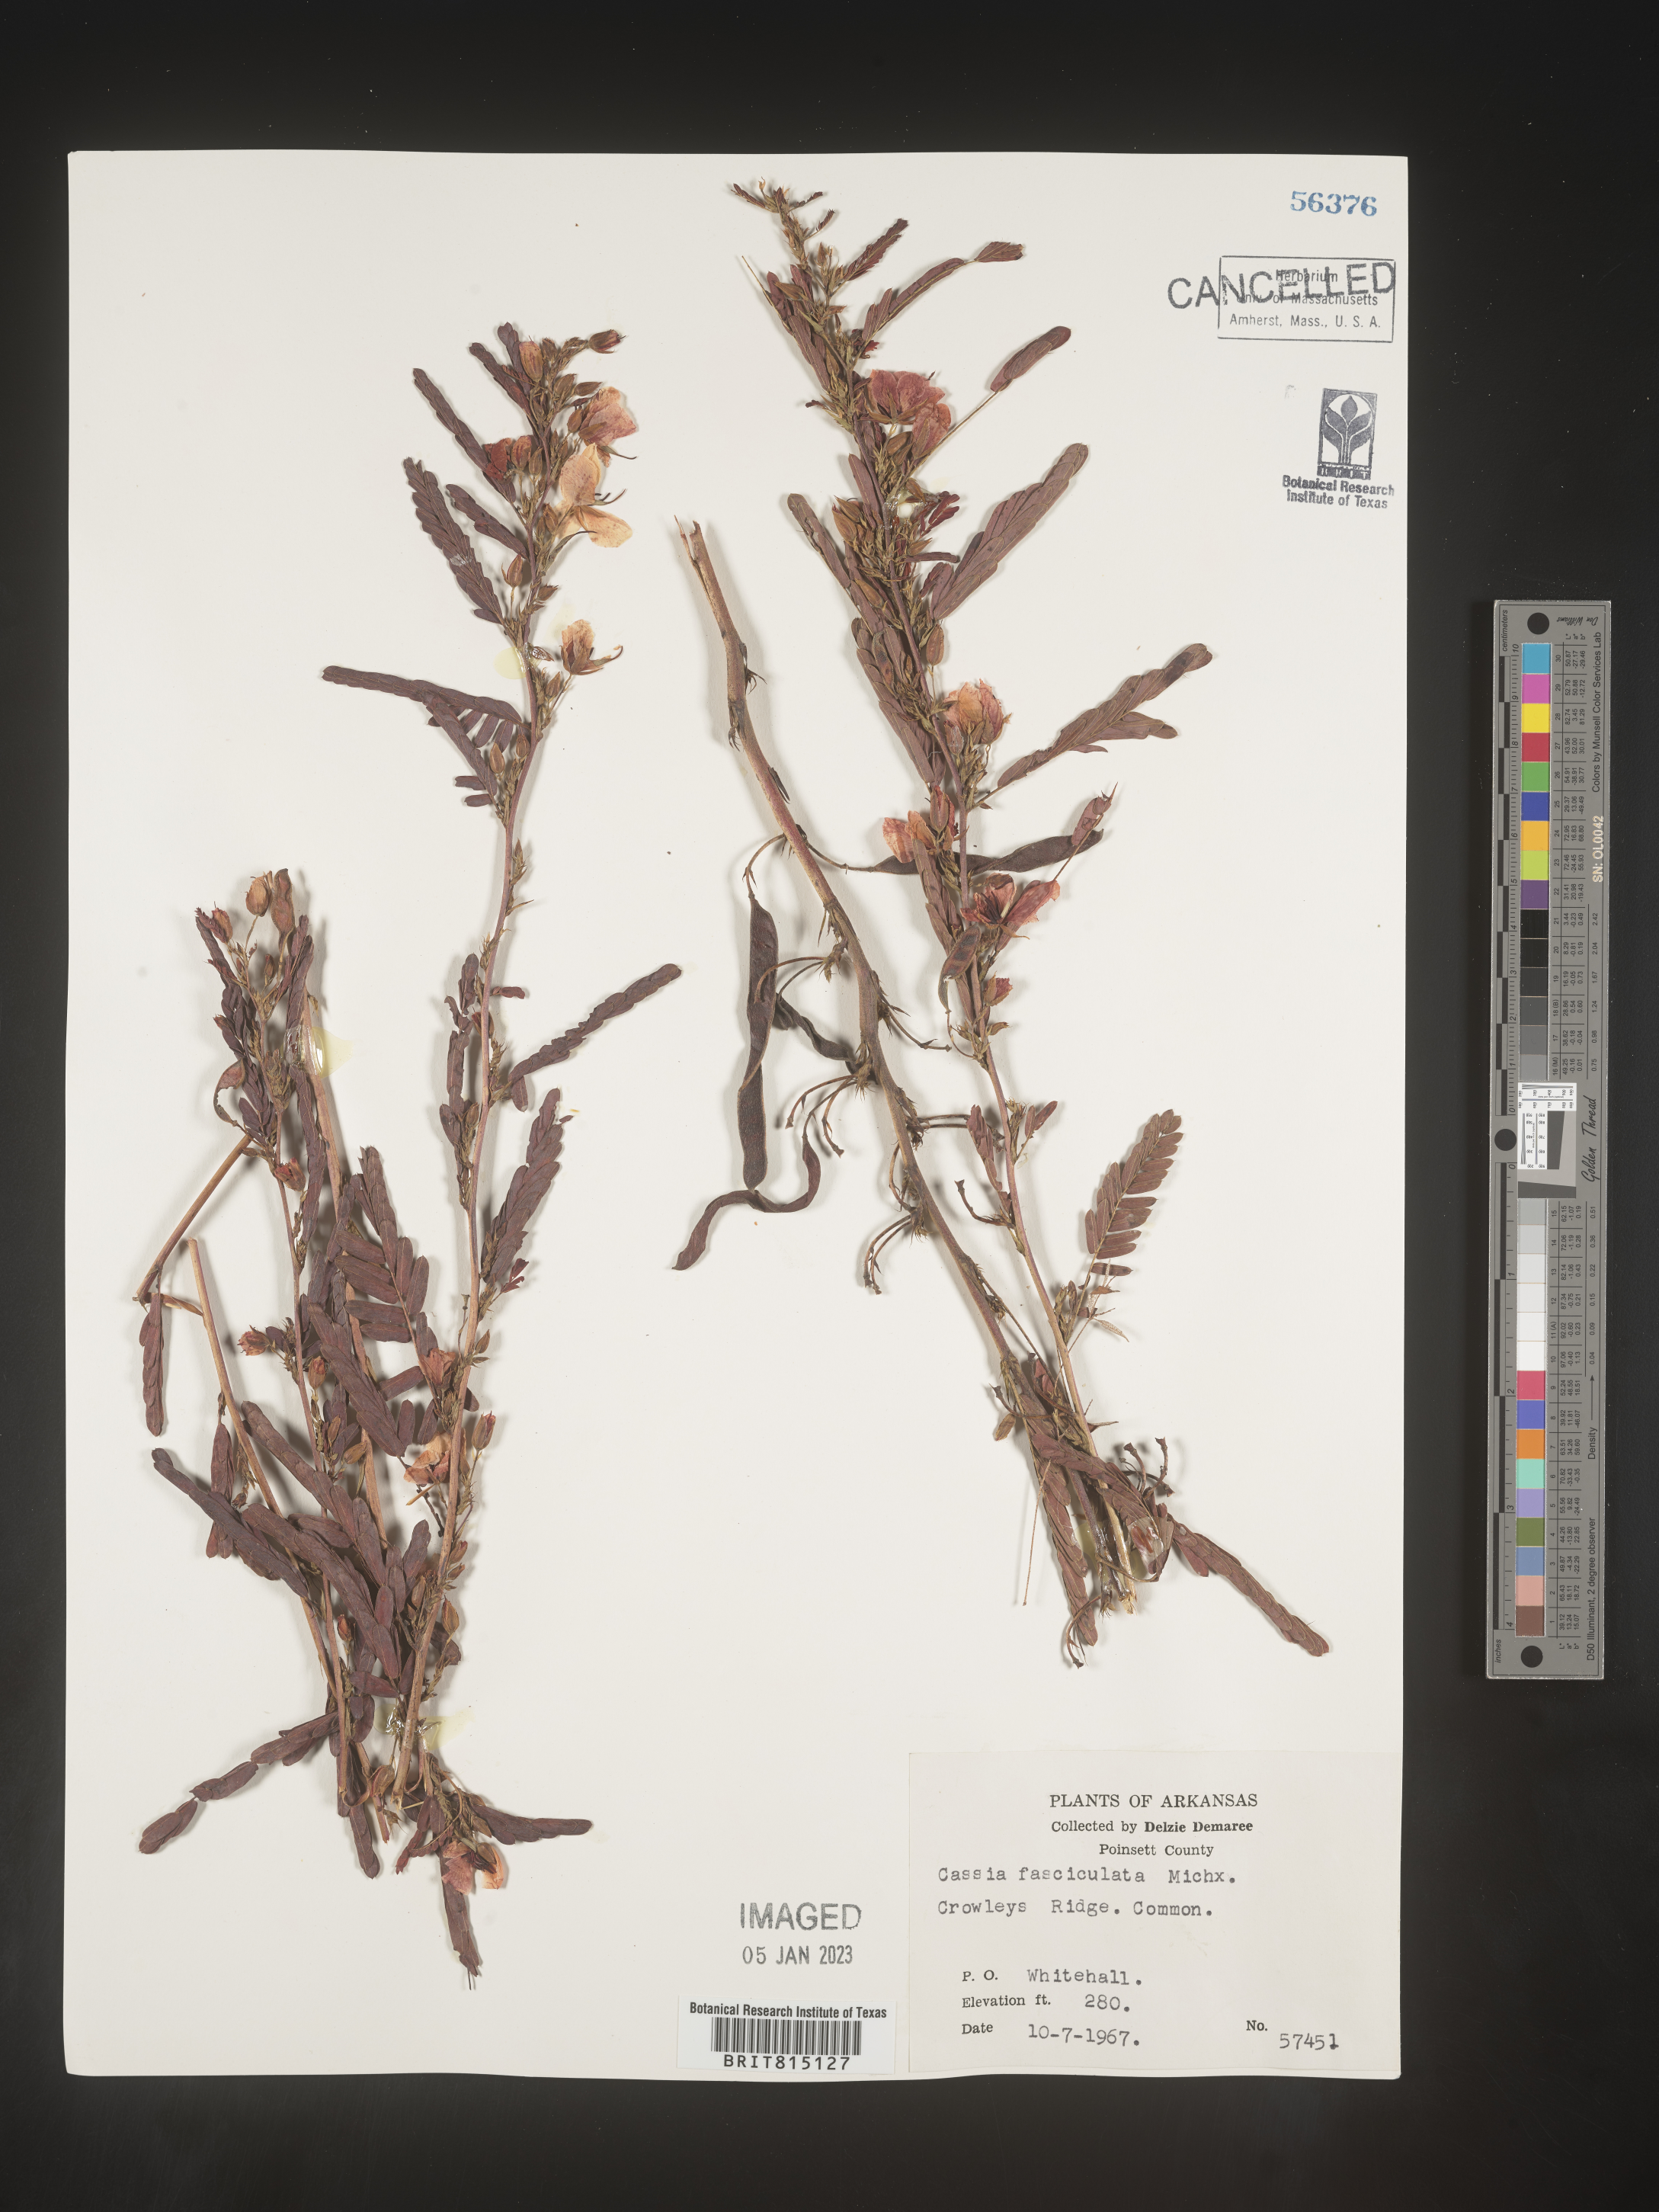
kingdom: Plantae
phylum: Tracheophyta
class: Magnoliopsida
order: Fabales
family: Fabaceae
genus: Chamaecrista
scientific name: Chamaecrista fasciculata
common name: Golden cassia
